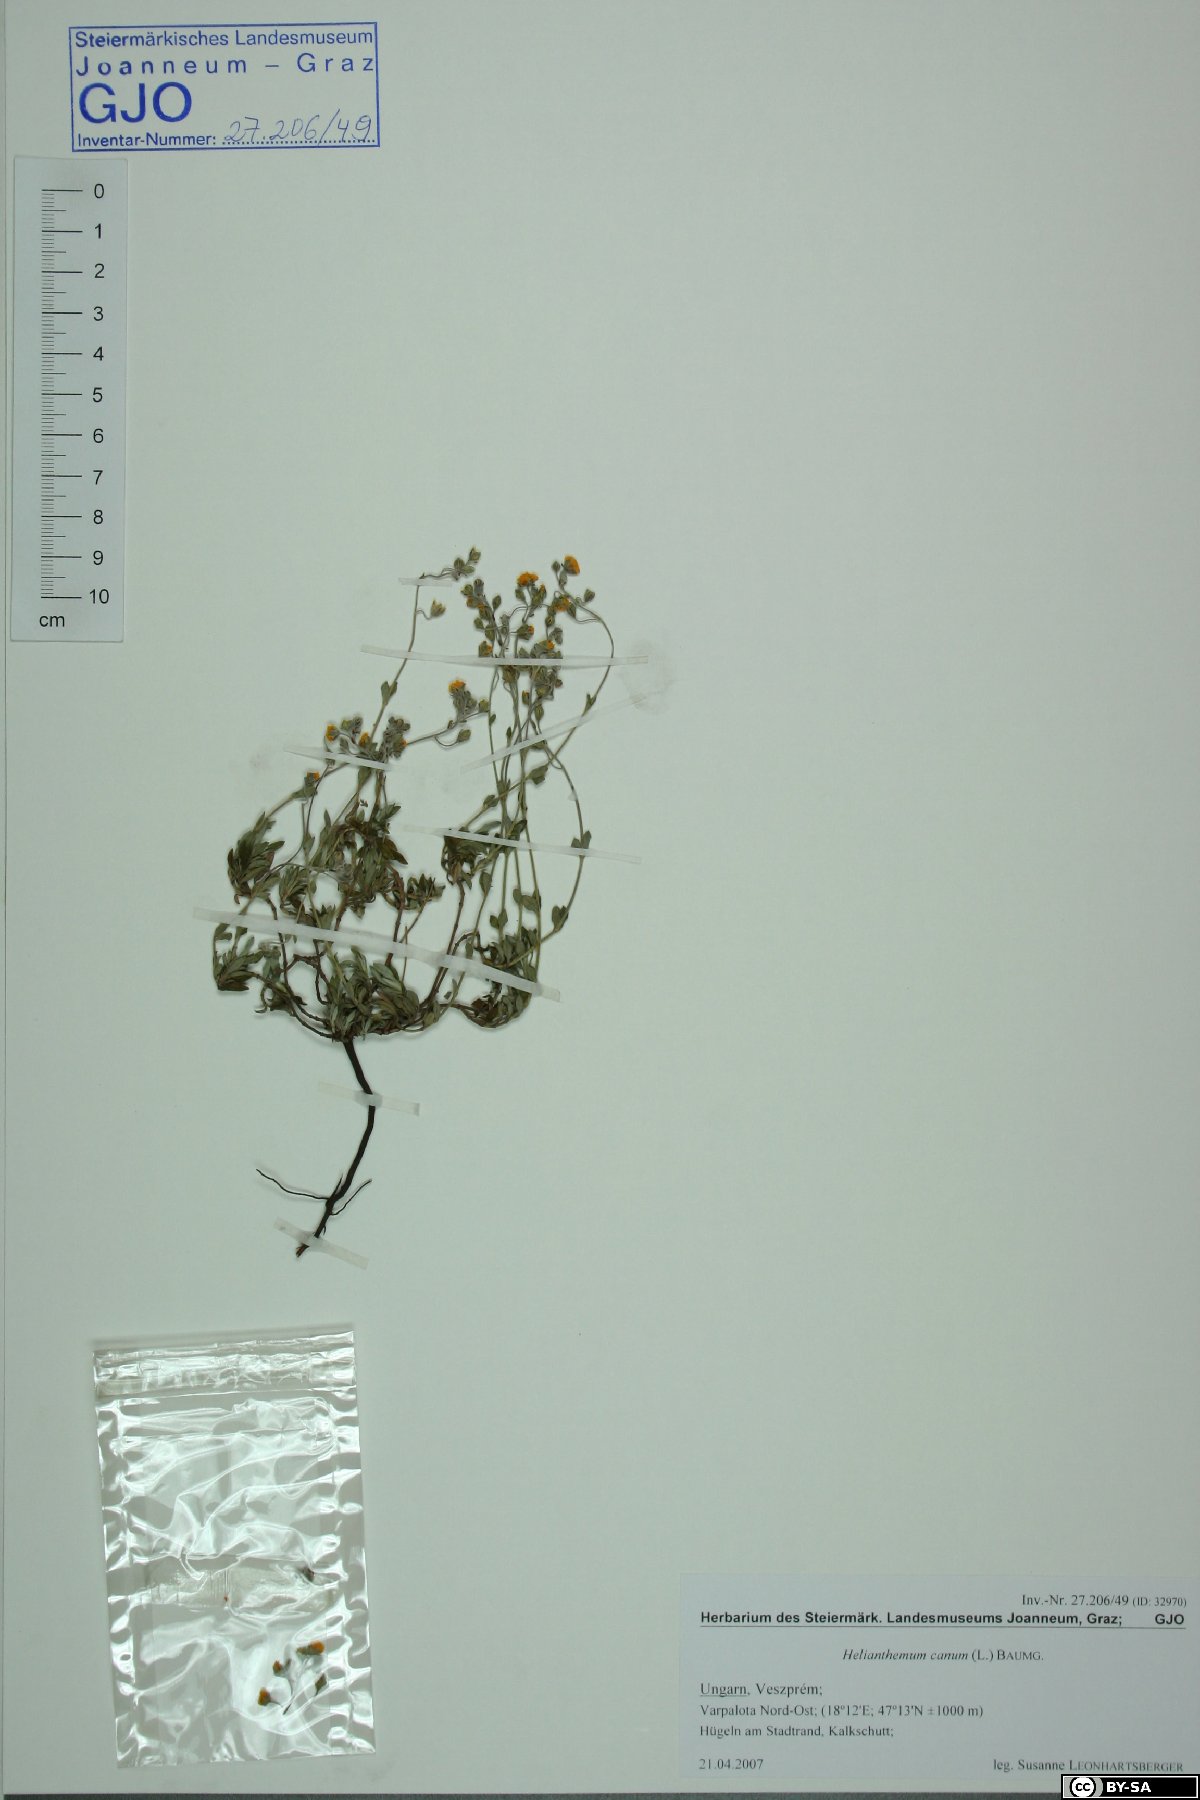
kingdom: Plantae
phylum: Tracheophyta
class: Magnoliopsida
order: Malvales
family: Cistaceae
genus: Helianthemum
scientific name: Helianthemum canum
